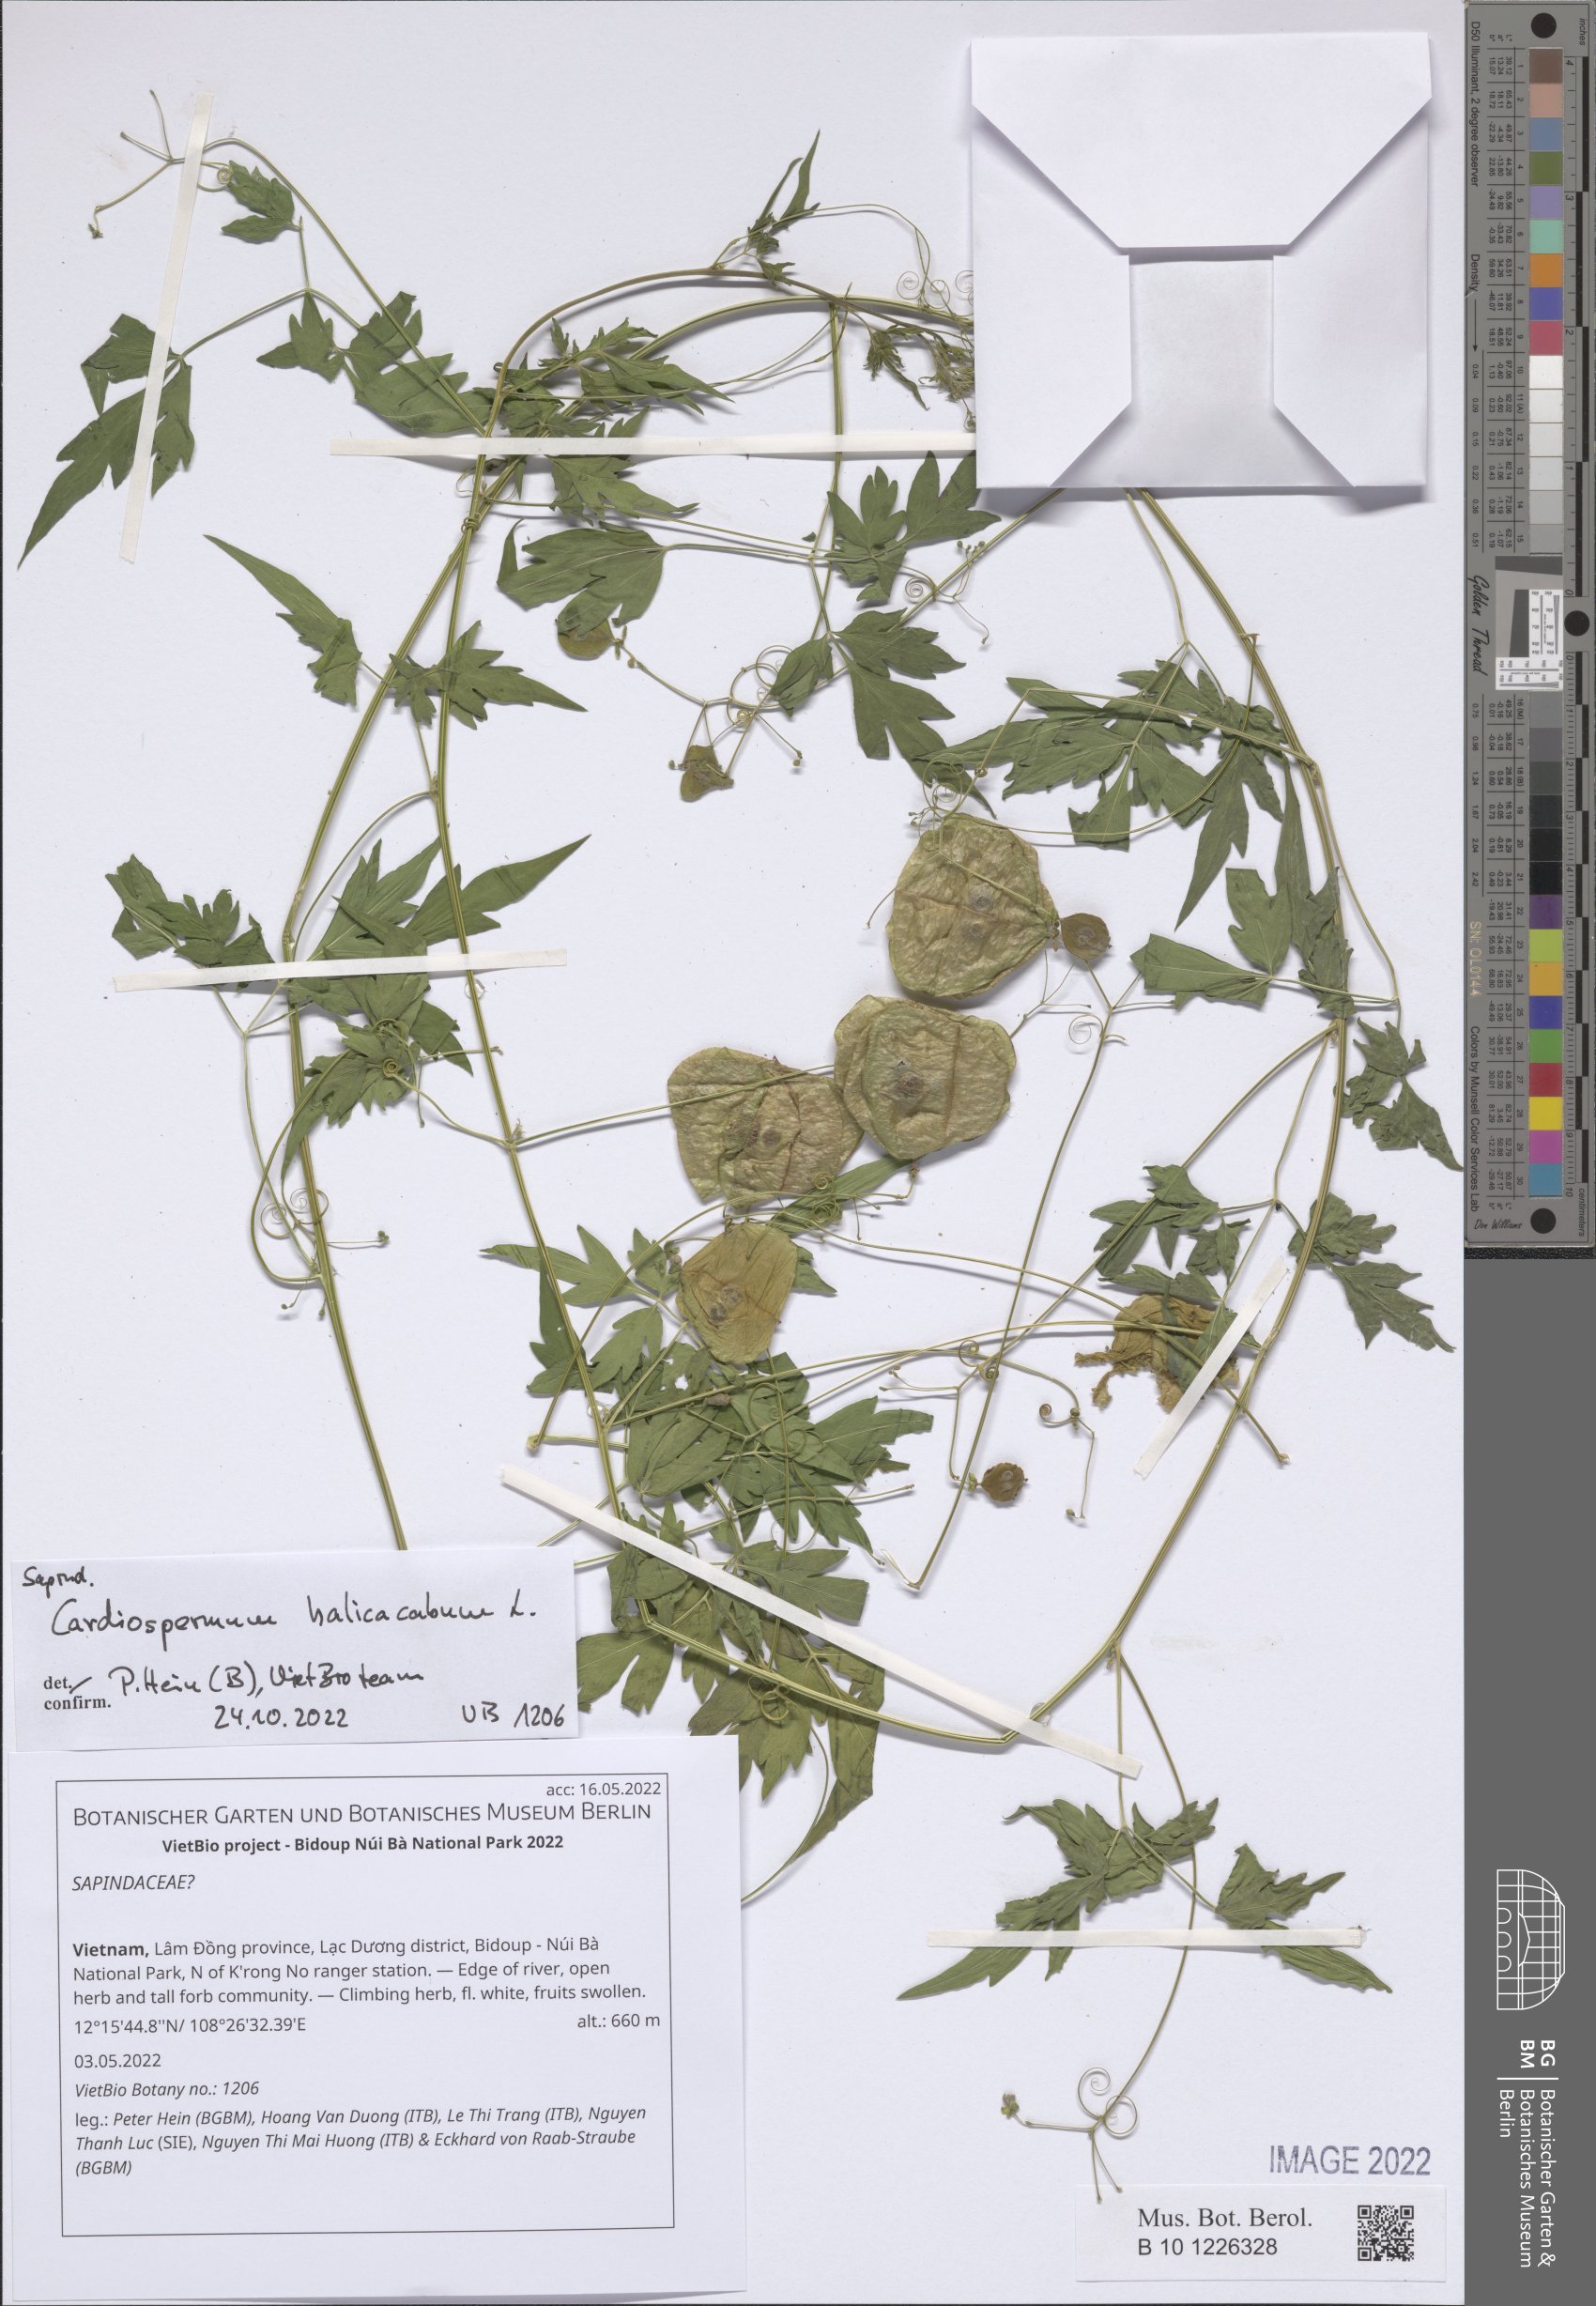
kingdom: Plantae
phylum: Tracheophyta
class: Magnoliopsida
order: Sapindales
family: Sapindaceae
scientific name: Sapindaceae
